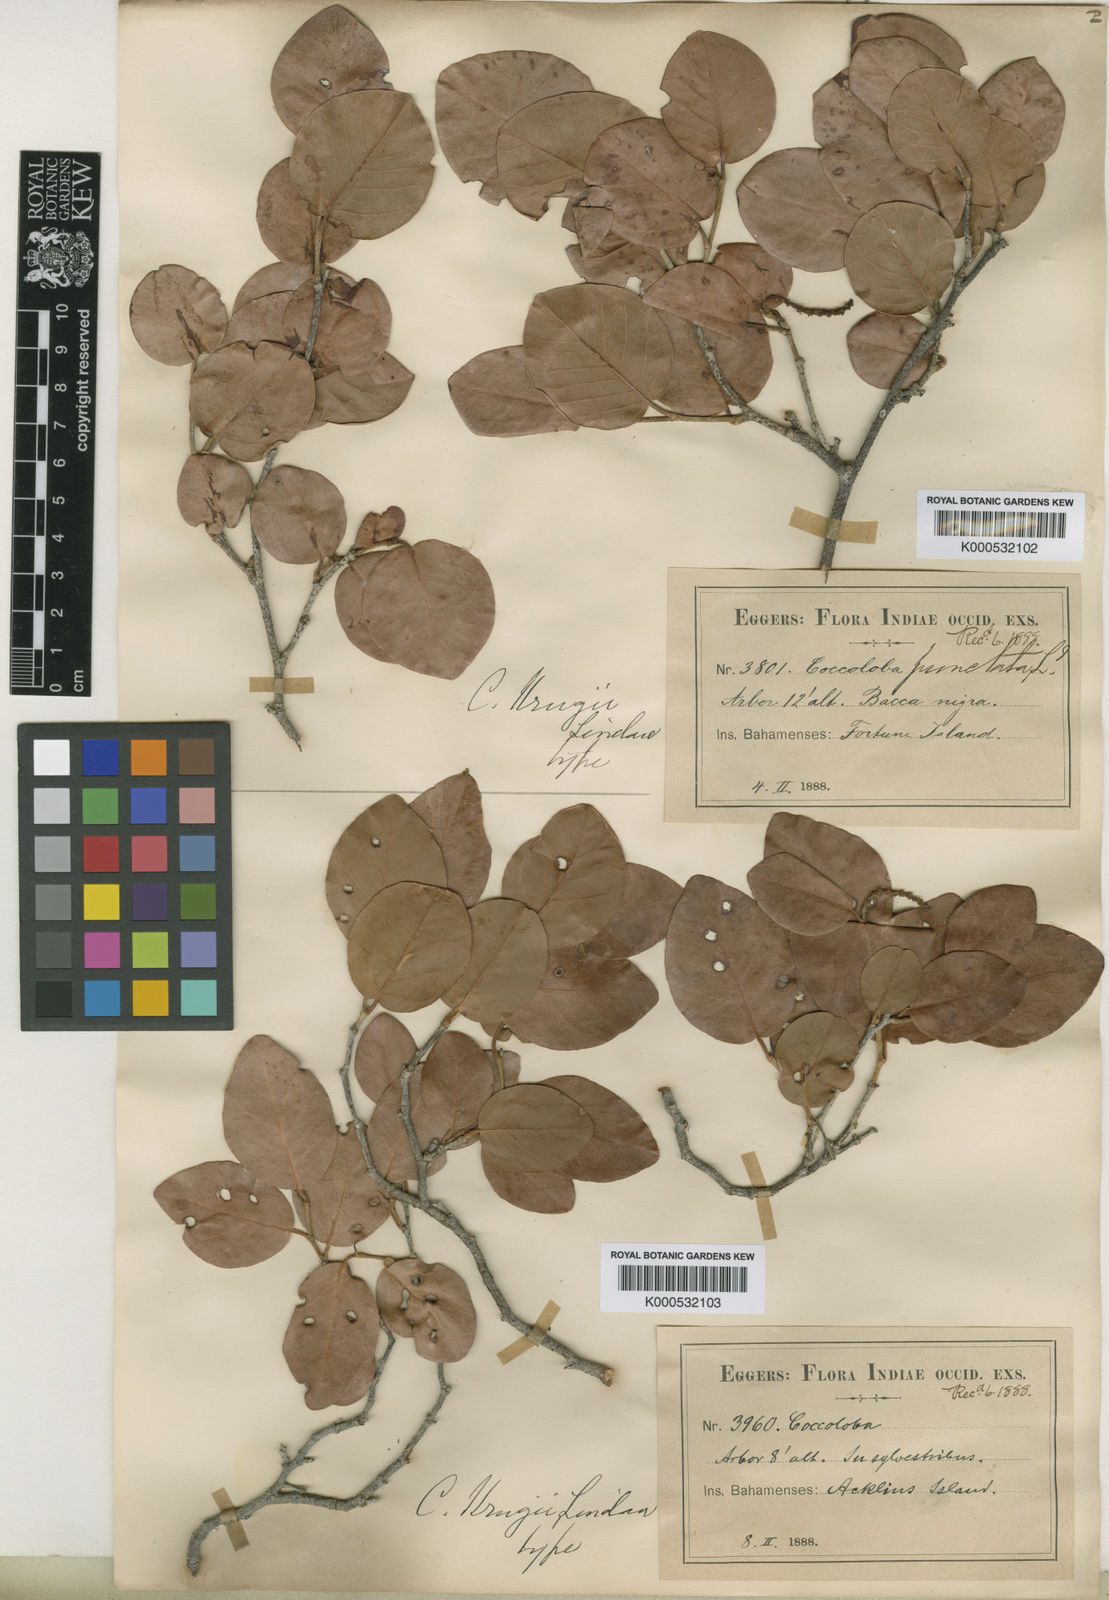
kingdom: Plantae
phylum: Tracheophyta
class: Magnoliopsida
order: Caryophyllales
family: Polygonaceae
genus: Coccoloba
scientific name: Coccoloba krugii
